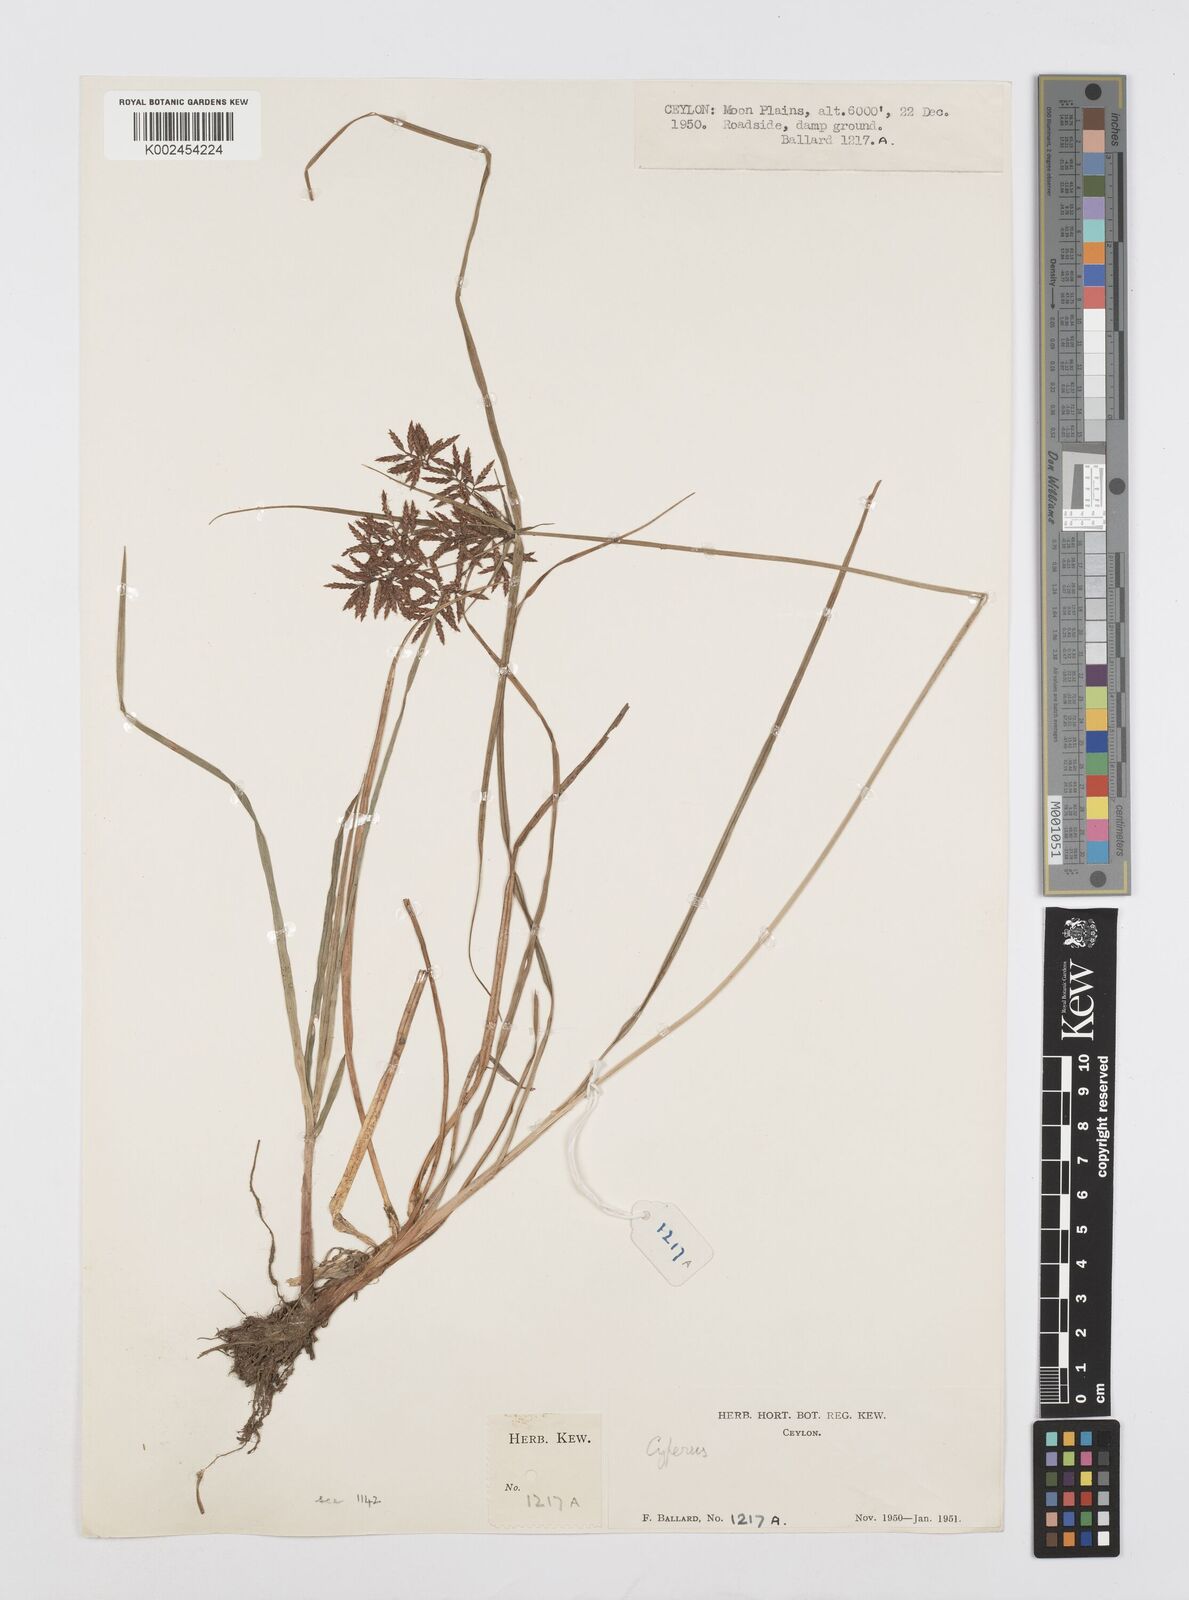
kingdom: Plantae
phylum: Tracheophyta
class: Liliopsida
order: Poales
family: Cyperaceae
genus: Cyperus
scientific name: Cyperus polystachyos
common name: Bunchy flat sedge
